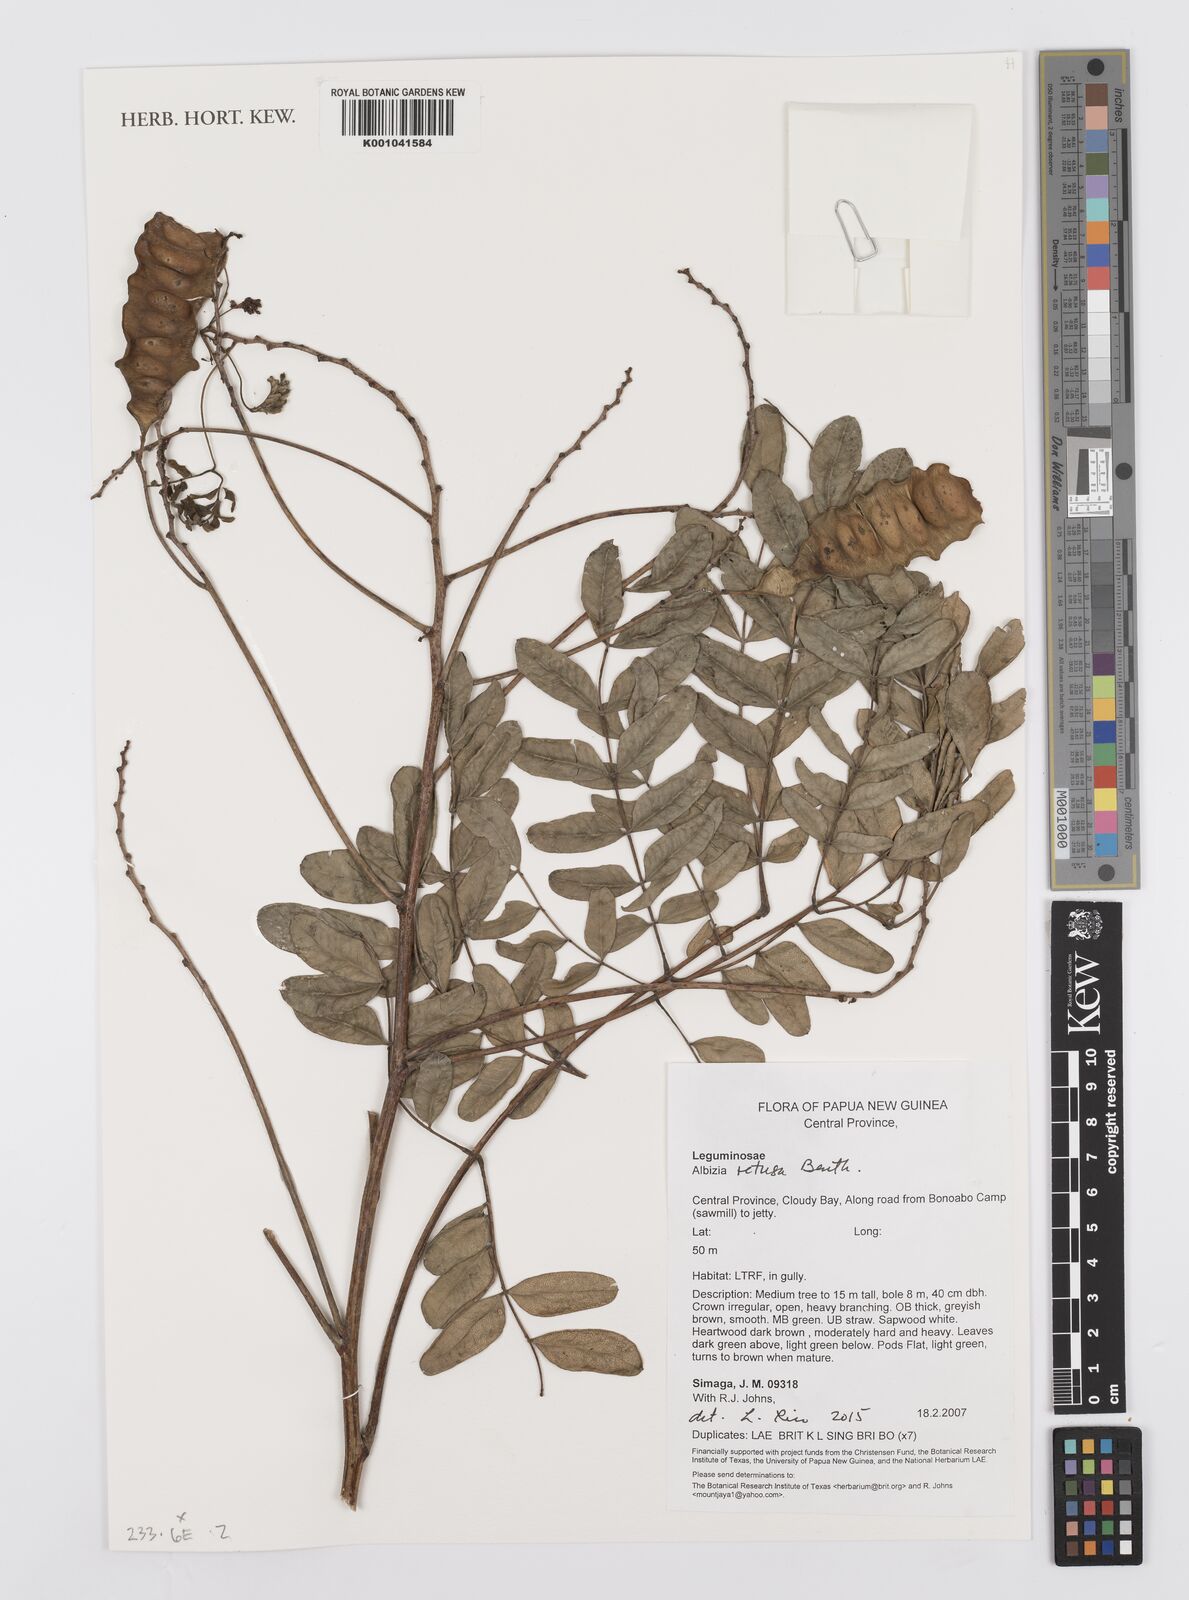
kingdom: Plantae
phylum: Tracheophyta
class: Magnoliopsida
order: Fabales
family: Fabaceae
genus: Albizia
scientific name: Albizia retusa
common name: Sea albizia
